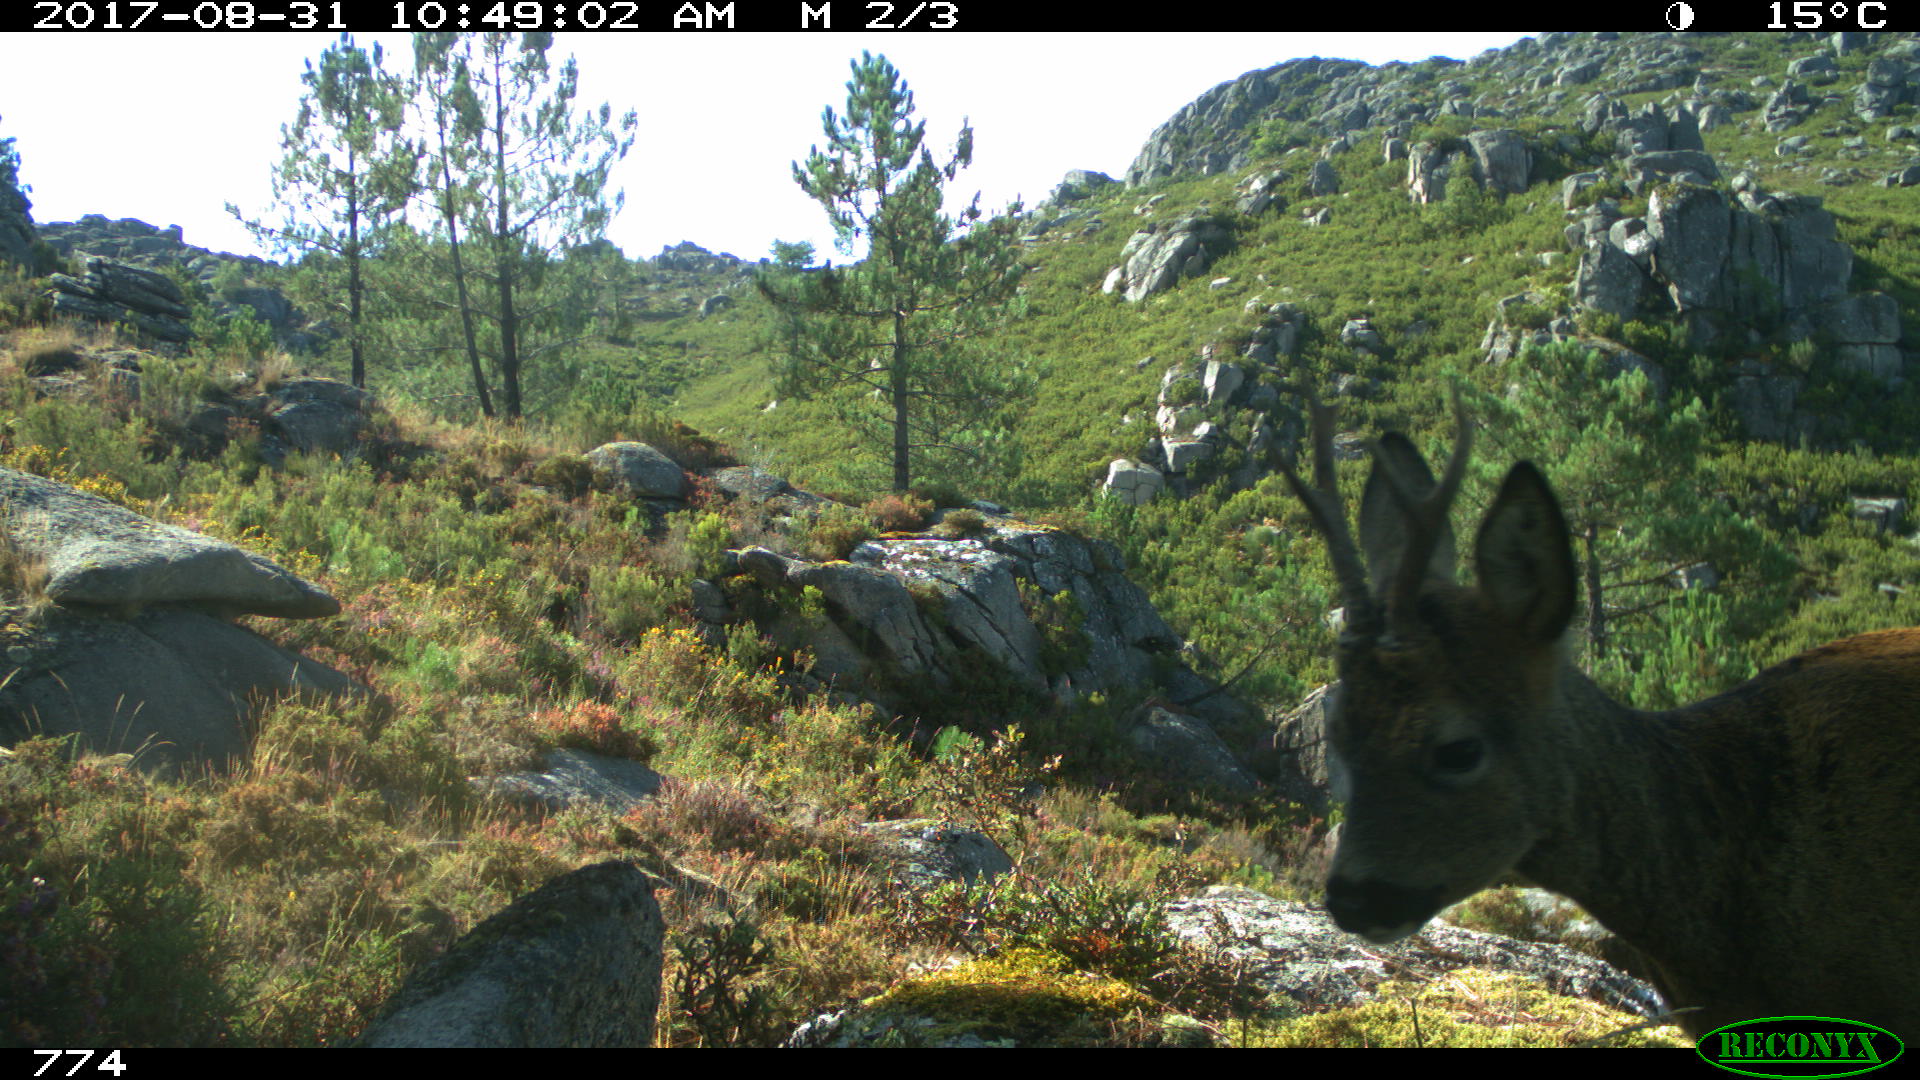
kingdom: Animalia
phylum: Chordata
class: Mammalia
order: Artiodactyla
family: Cervidae
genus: Capreolus
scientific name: Capreolus capreolus
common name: Western roe deer
